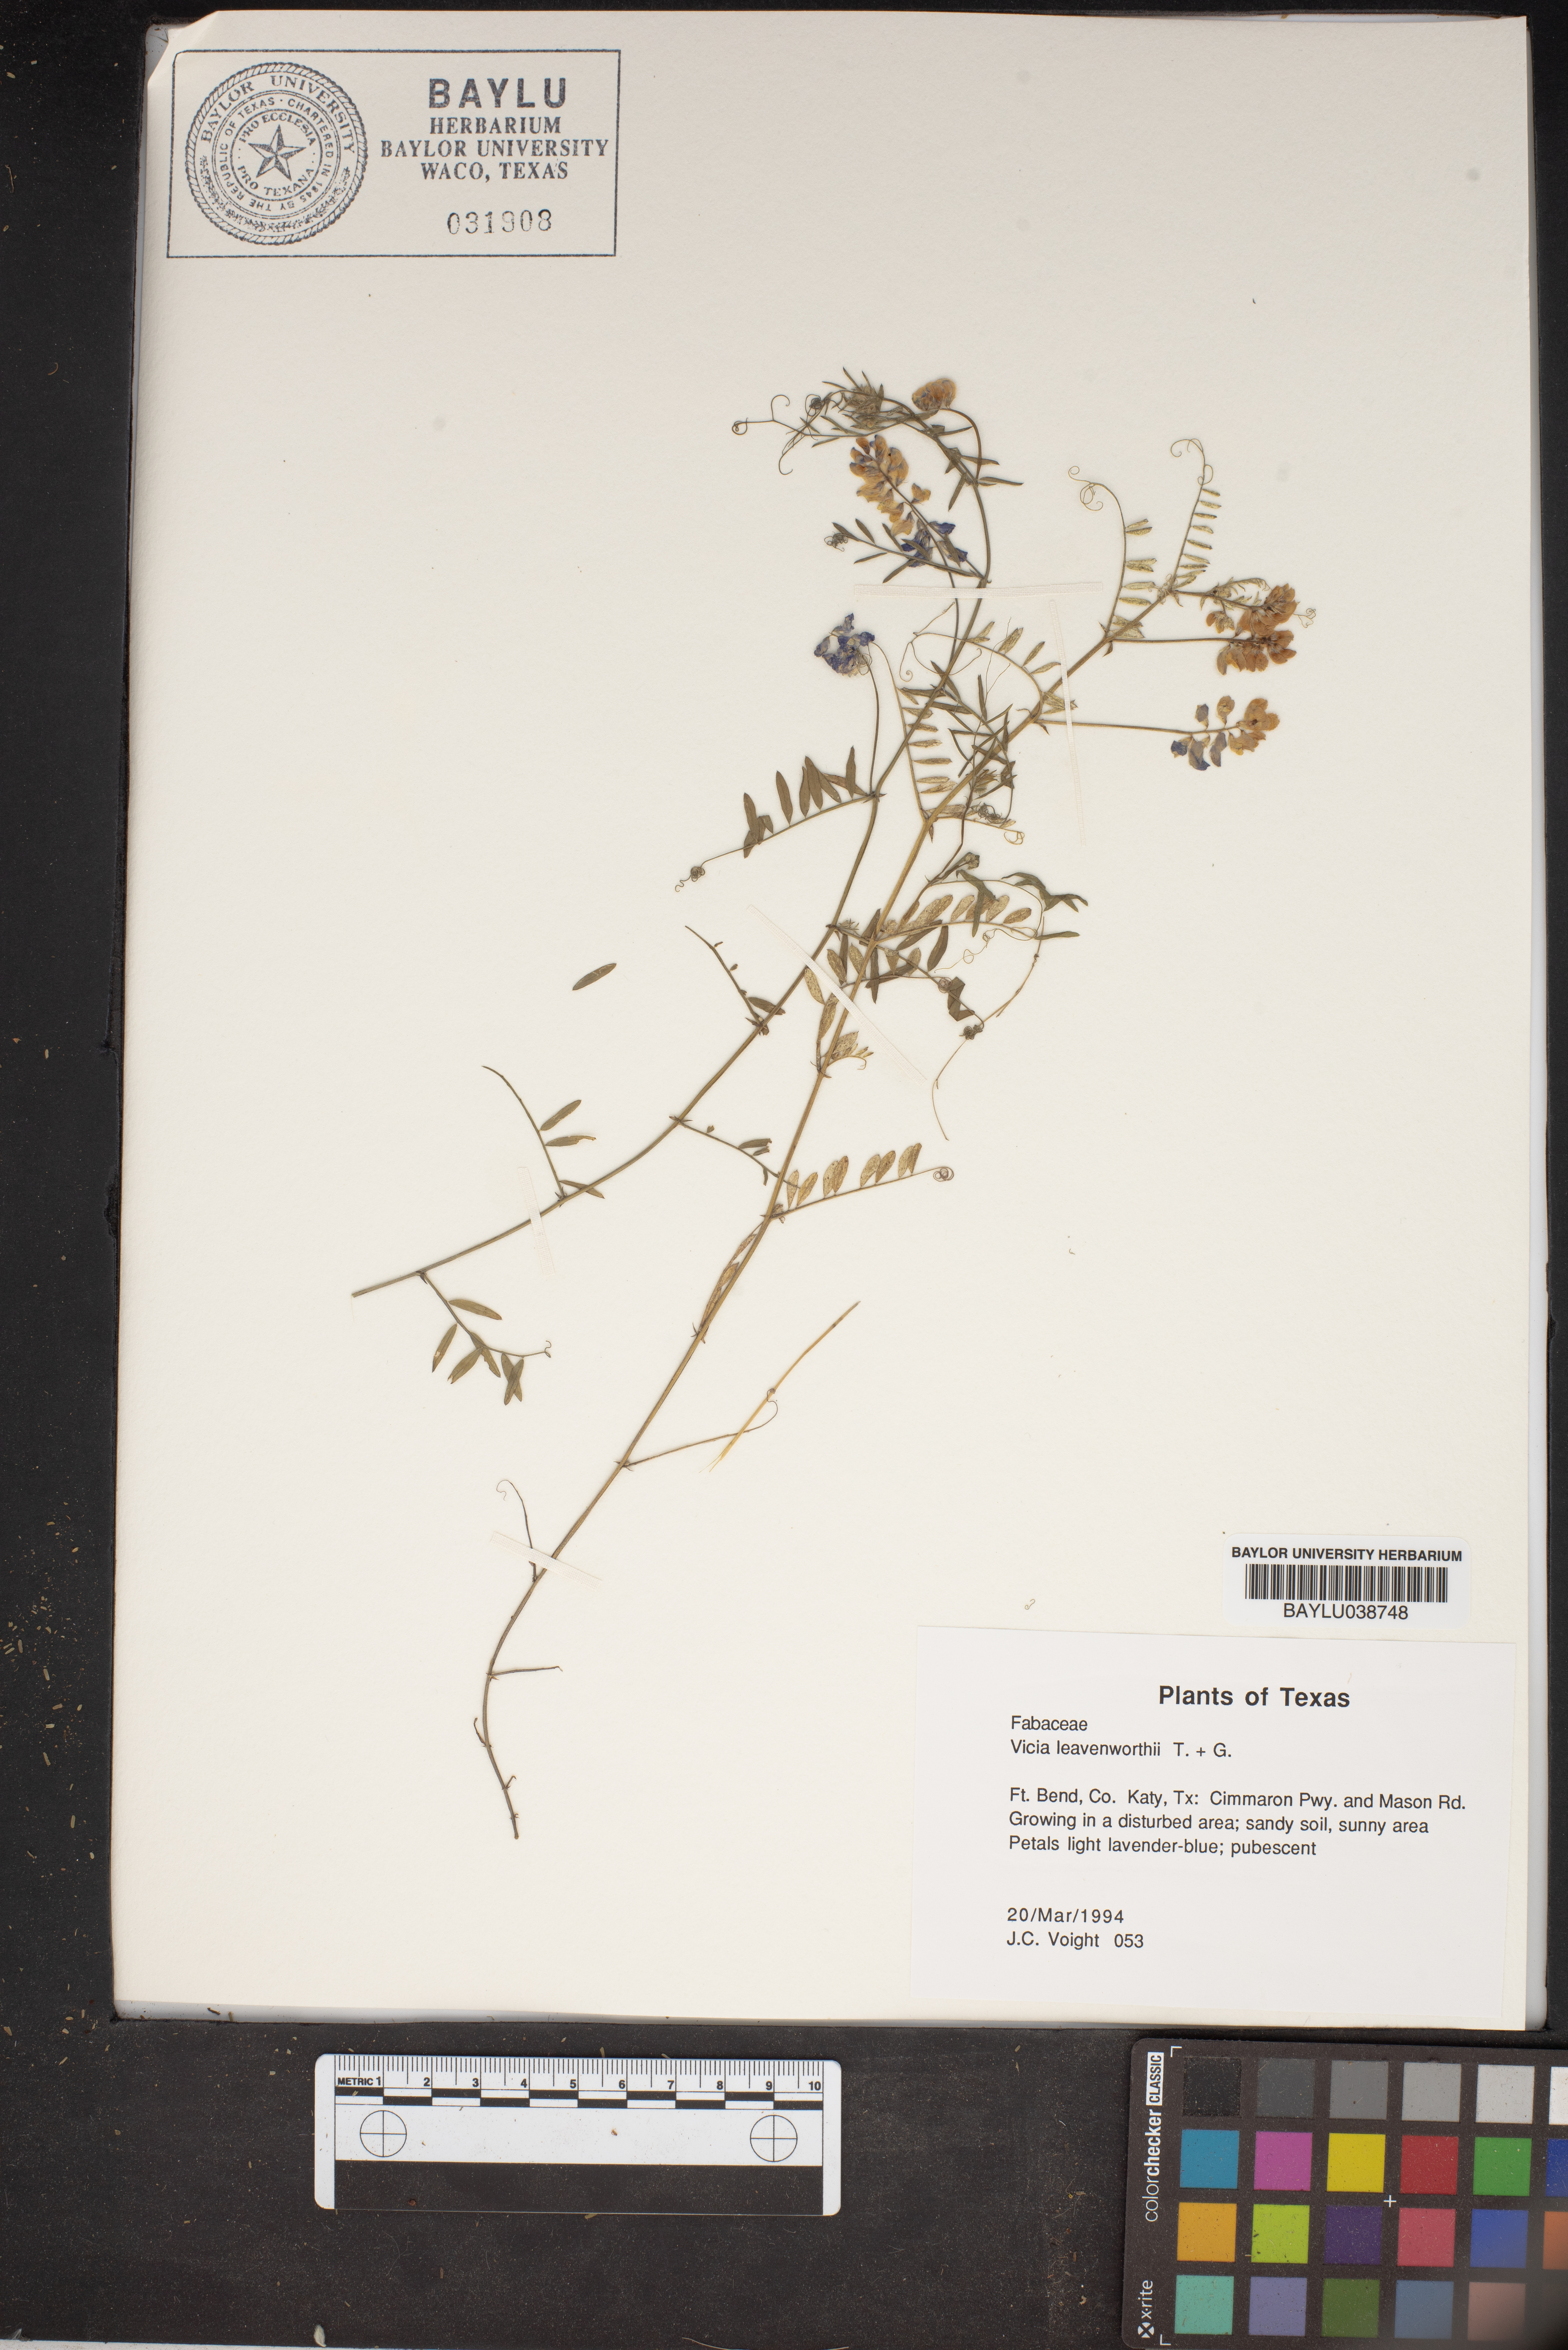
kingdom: Plantae
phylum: Tracheophyta
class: Magnoliopsida
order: Fabales
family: Fabaceae
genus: Vicia
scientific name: Vicia ludoviciana
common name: Louisiana vetch
